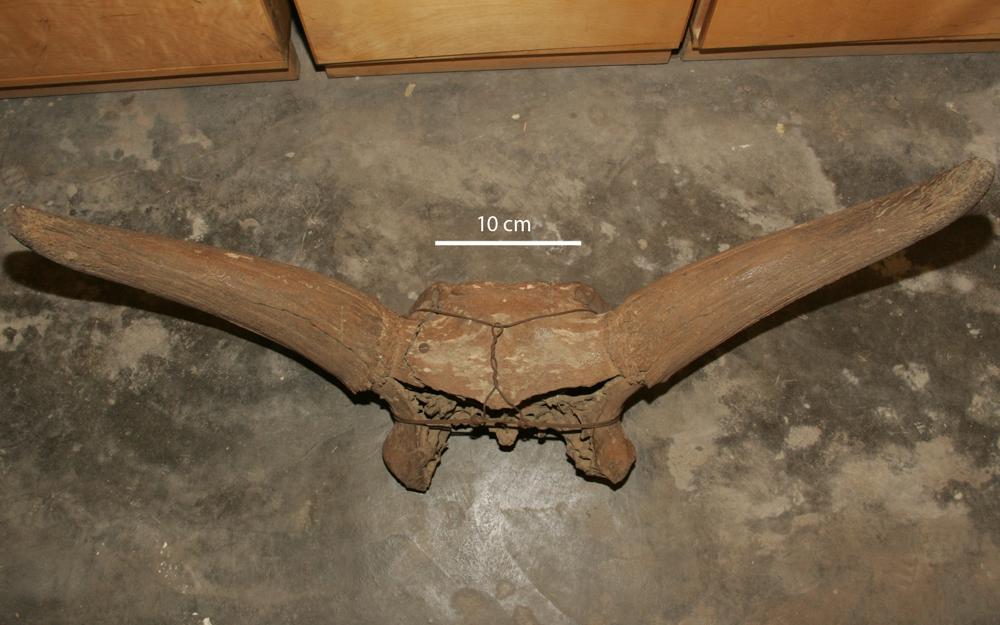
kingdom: Animalia
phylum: Chordata
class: Mammalia
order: Artiodactyla
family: Bovidae
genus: Bos
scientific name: Bos taurus
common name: Domesticated cattle
